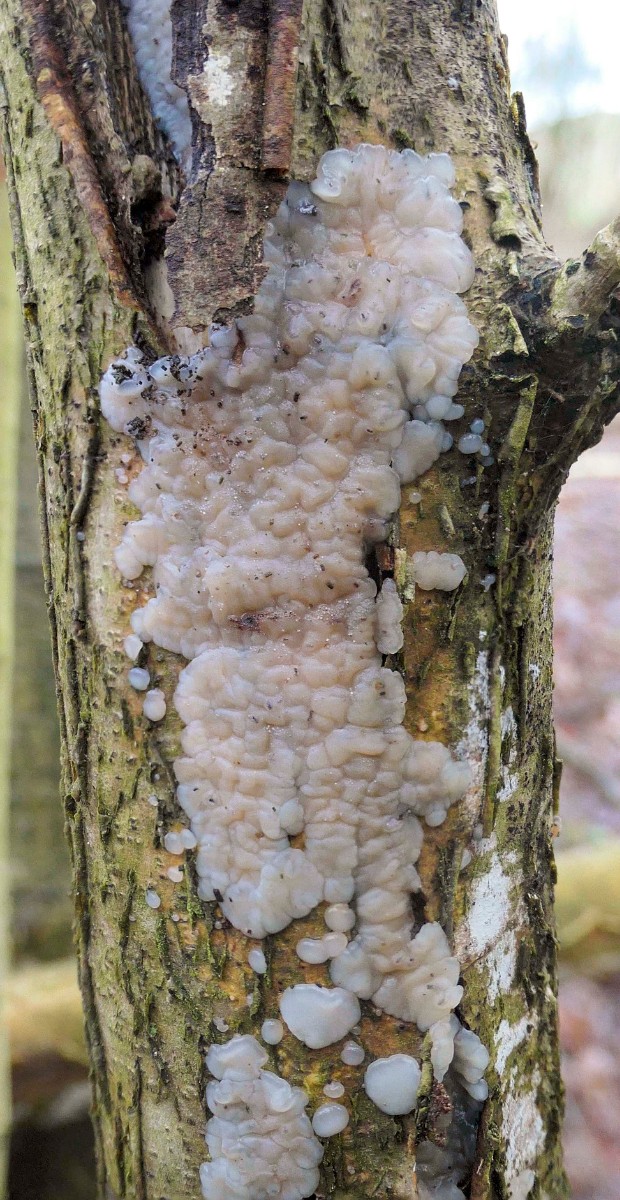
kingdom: Fungi
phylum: Basidiomycota
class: Agaricomycetes
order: Auriculariales
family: Auriculariaceae
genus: Exidia
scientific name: Exidia thuretiana
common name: hvidlig bævretop
